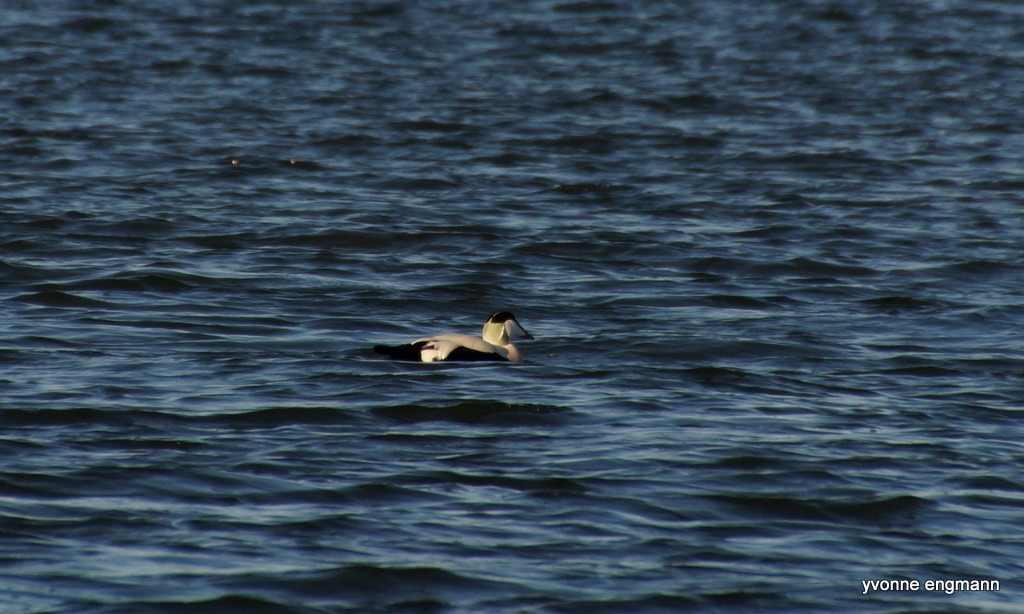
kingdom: Animalia
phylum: Chordata
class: Aves
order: Anseriformes
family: Anatidae
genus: Somateria
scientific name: Somateria mollissima
